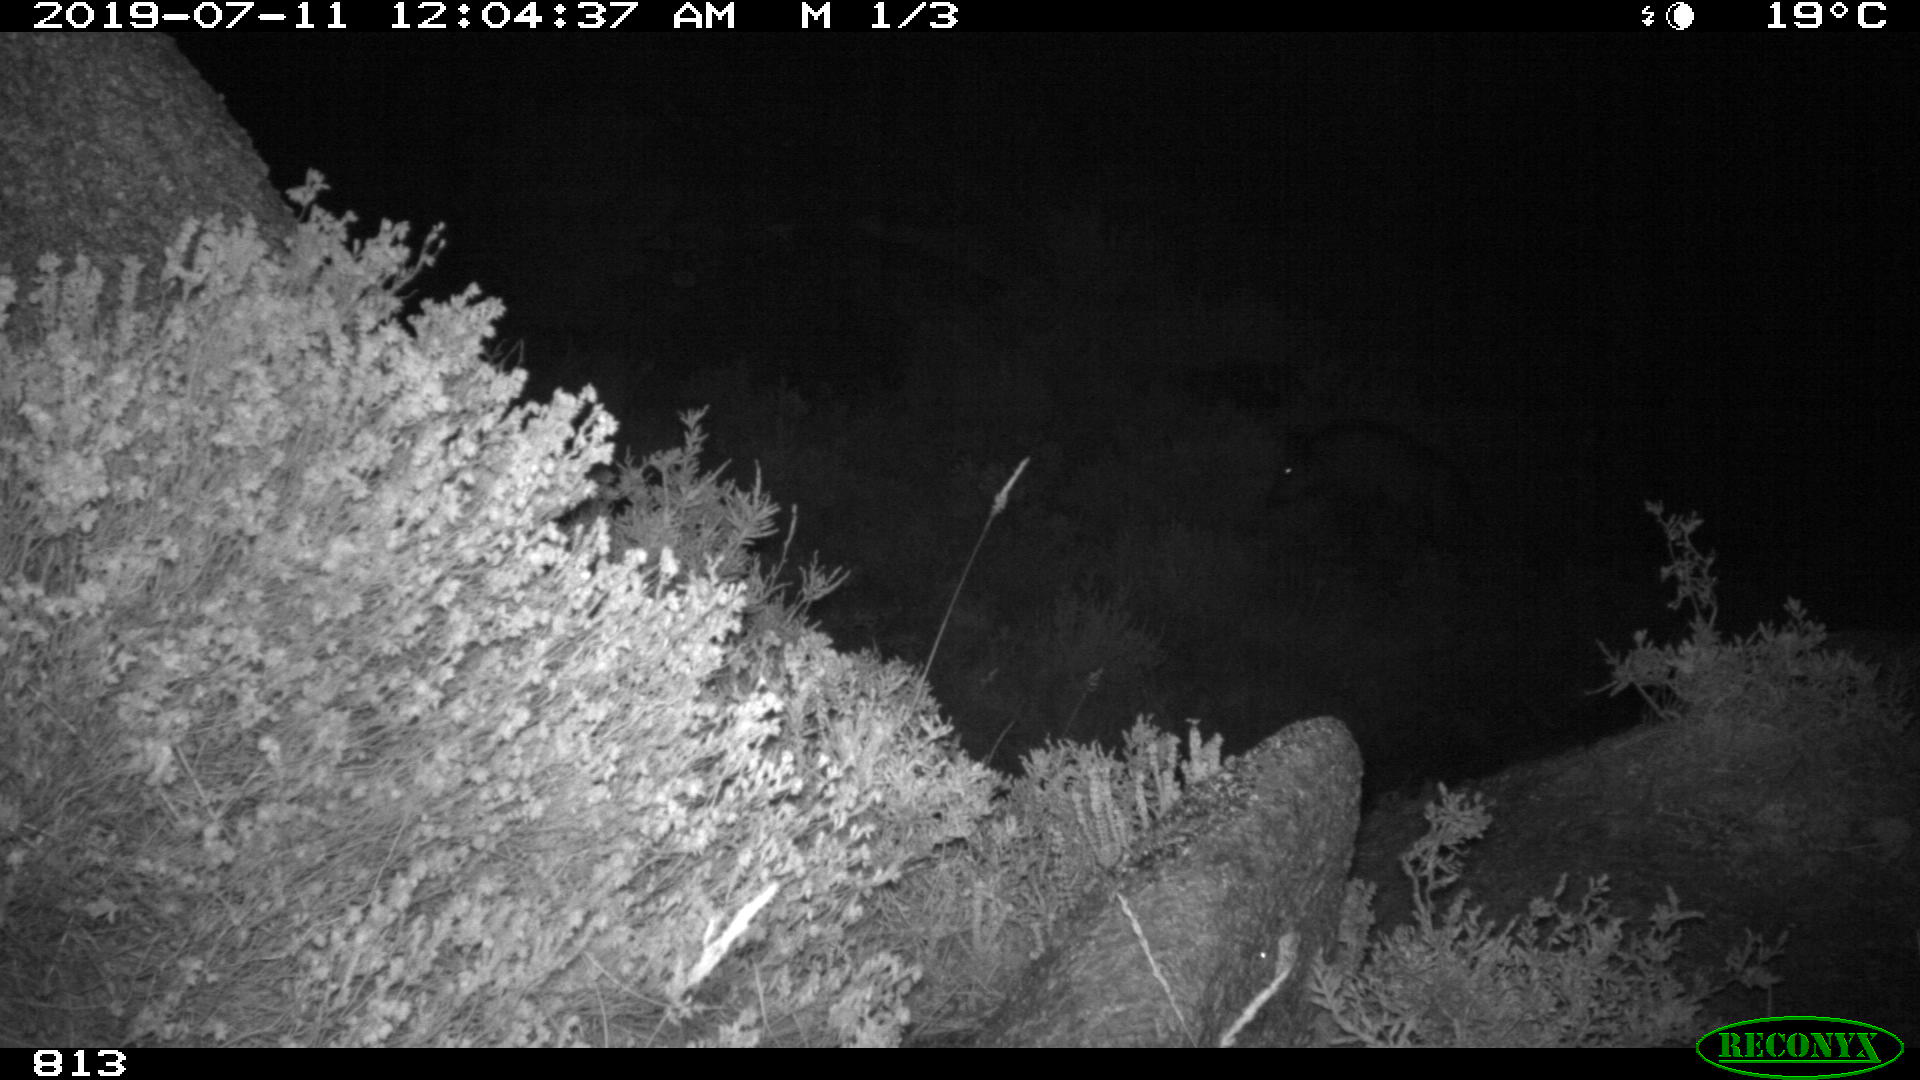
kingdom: Animalia
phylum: Chordata
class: Mammalia
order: Artiodactyla
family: Suidae
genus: Sus
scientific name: Sus scrofa
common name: Wild boar
